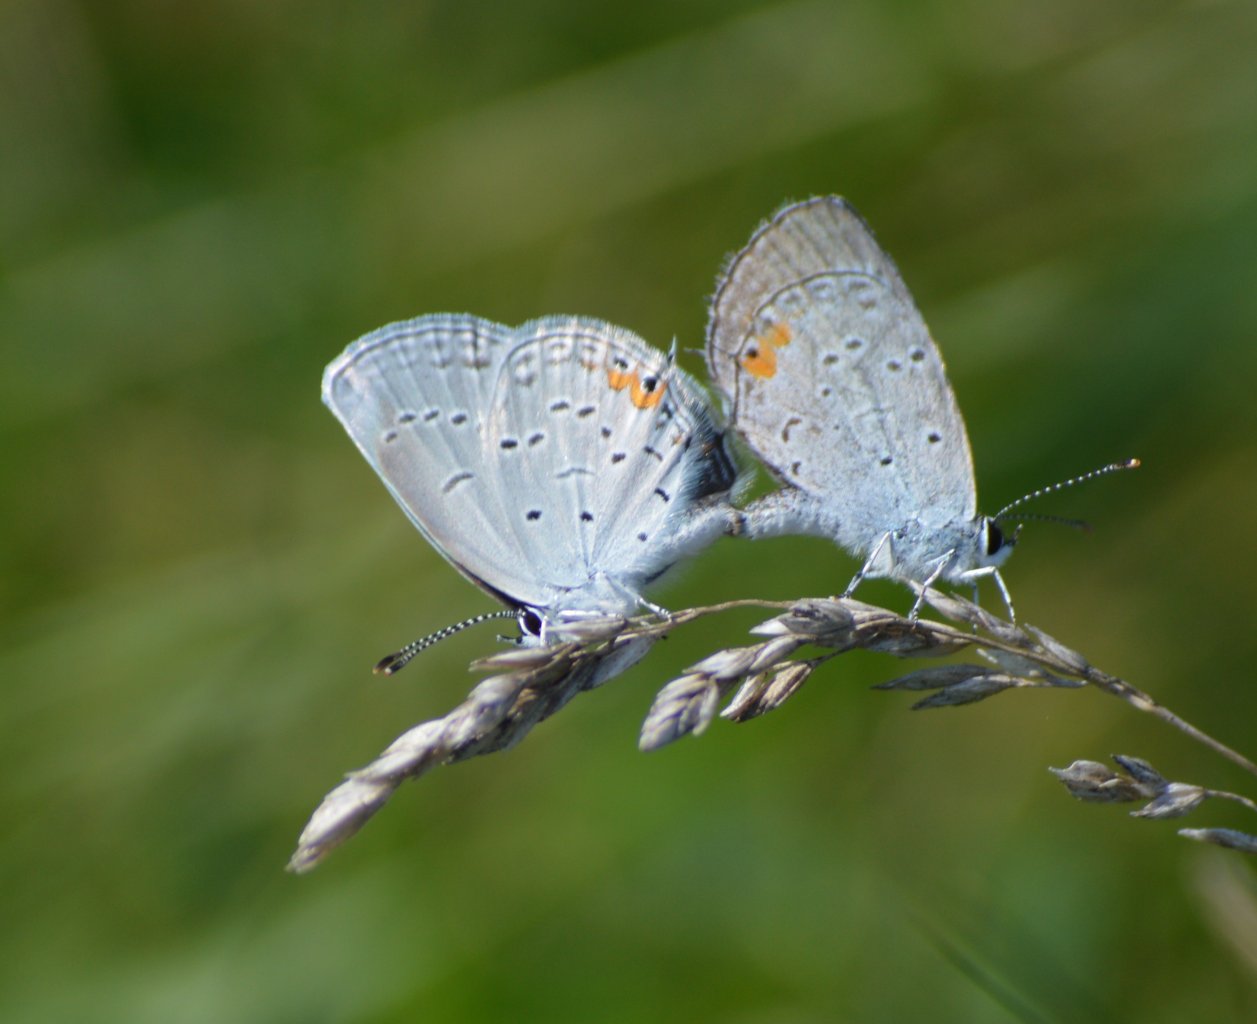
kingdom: Animalia
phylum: Arthropoda
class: Insecta
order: Lepidoptera
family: Lycaenidae
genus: Elkalyce
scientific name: Elkalyce comyntas
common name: Eastern Tailed-Blue
